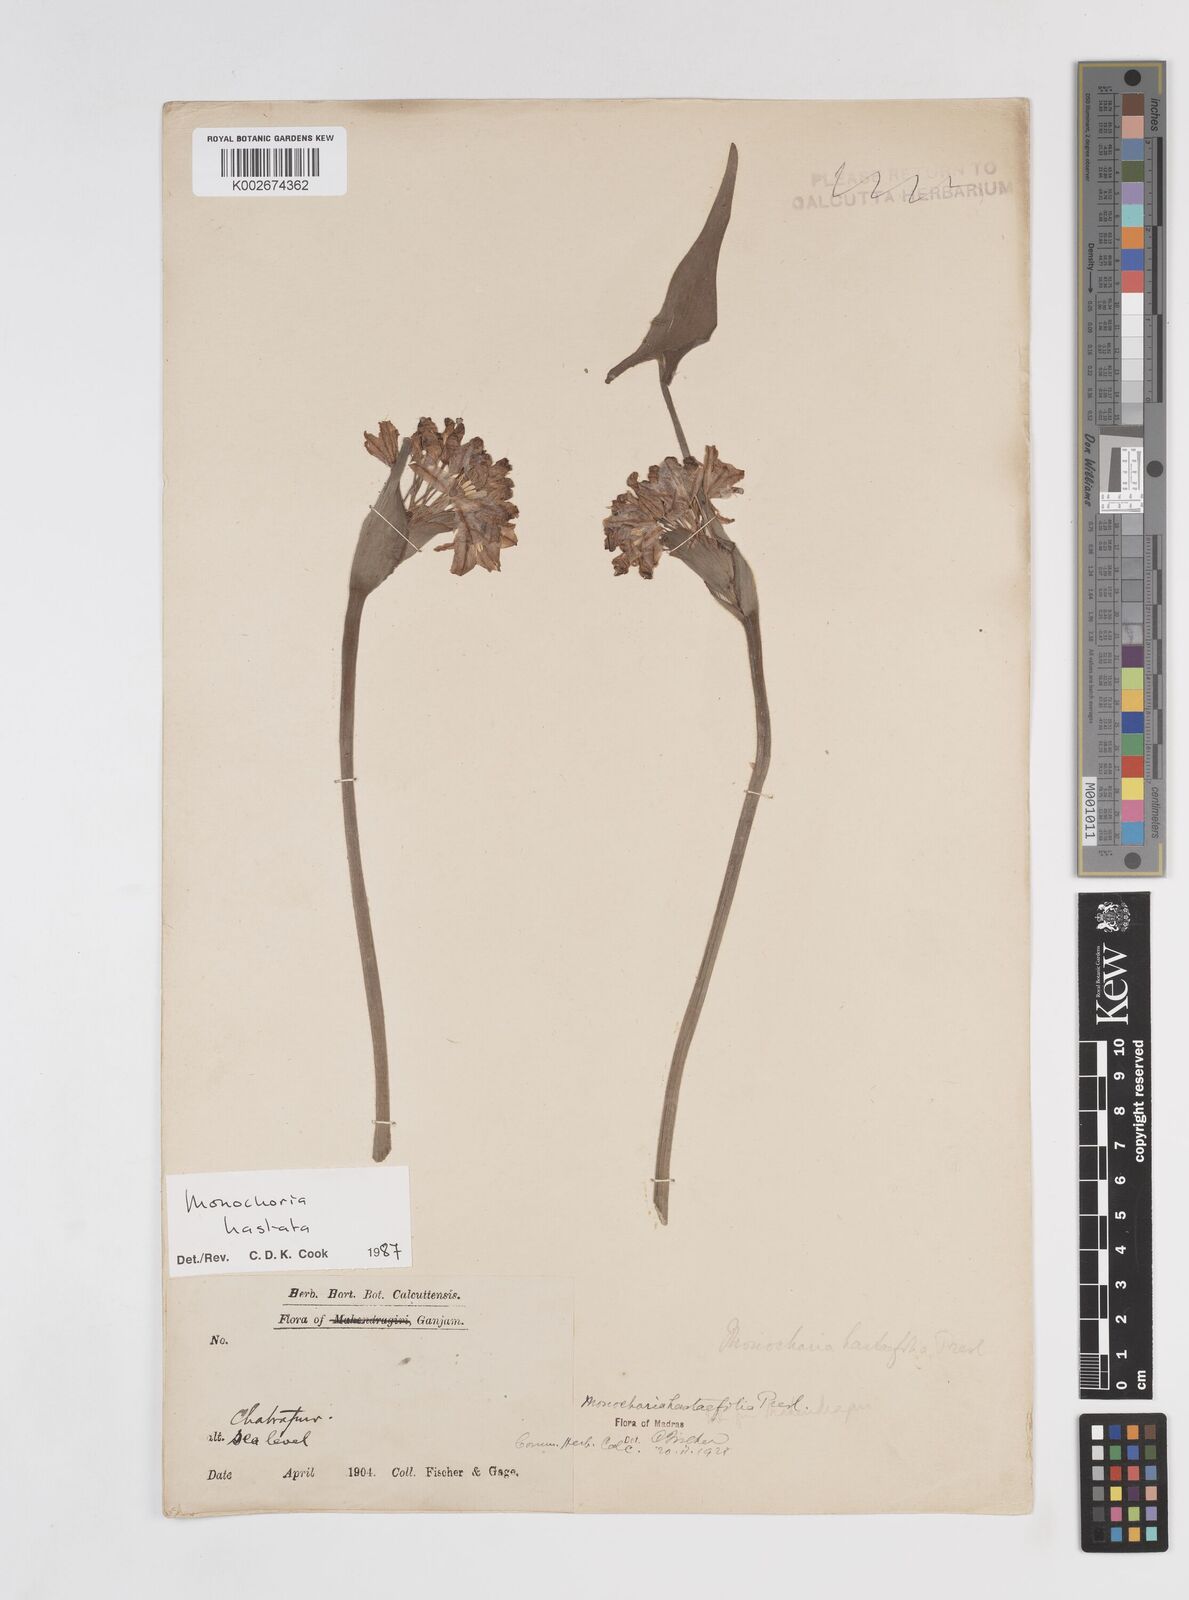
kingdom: Plantae
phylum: Tracheophyta
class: Liliopsida
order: Commelinales
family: Pontederiaceae
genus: Pontederia
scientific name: Pontederia hastata
